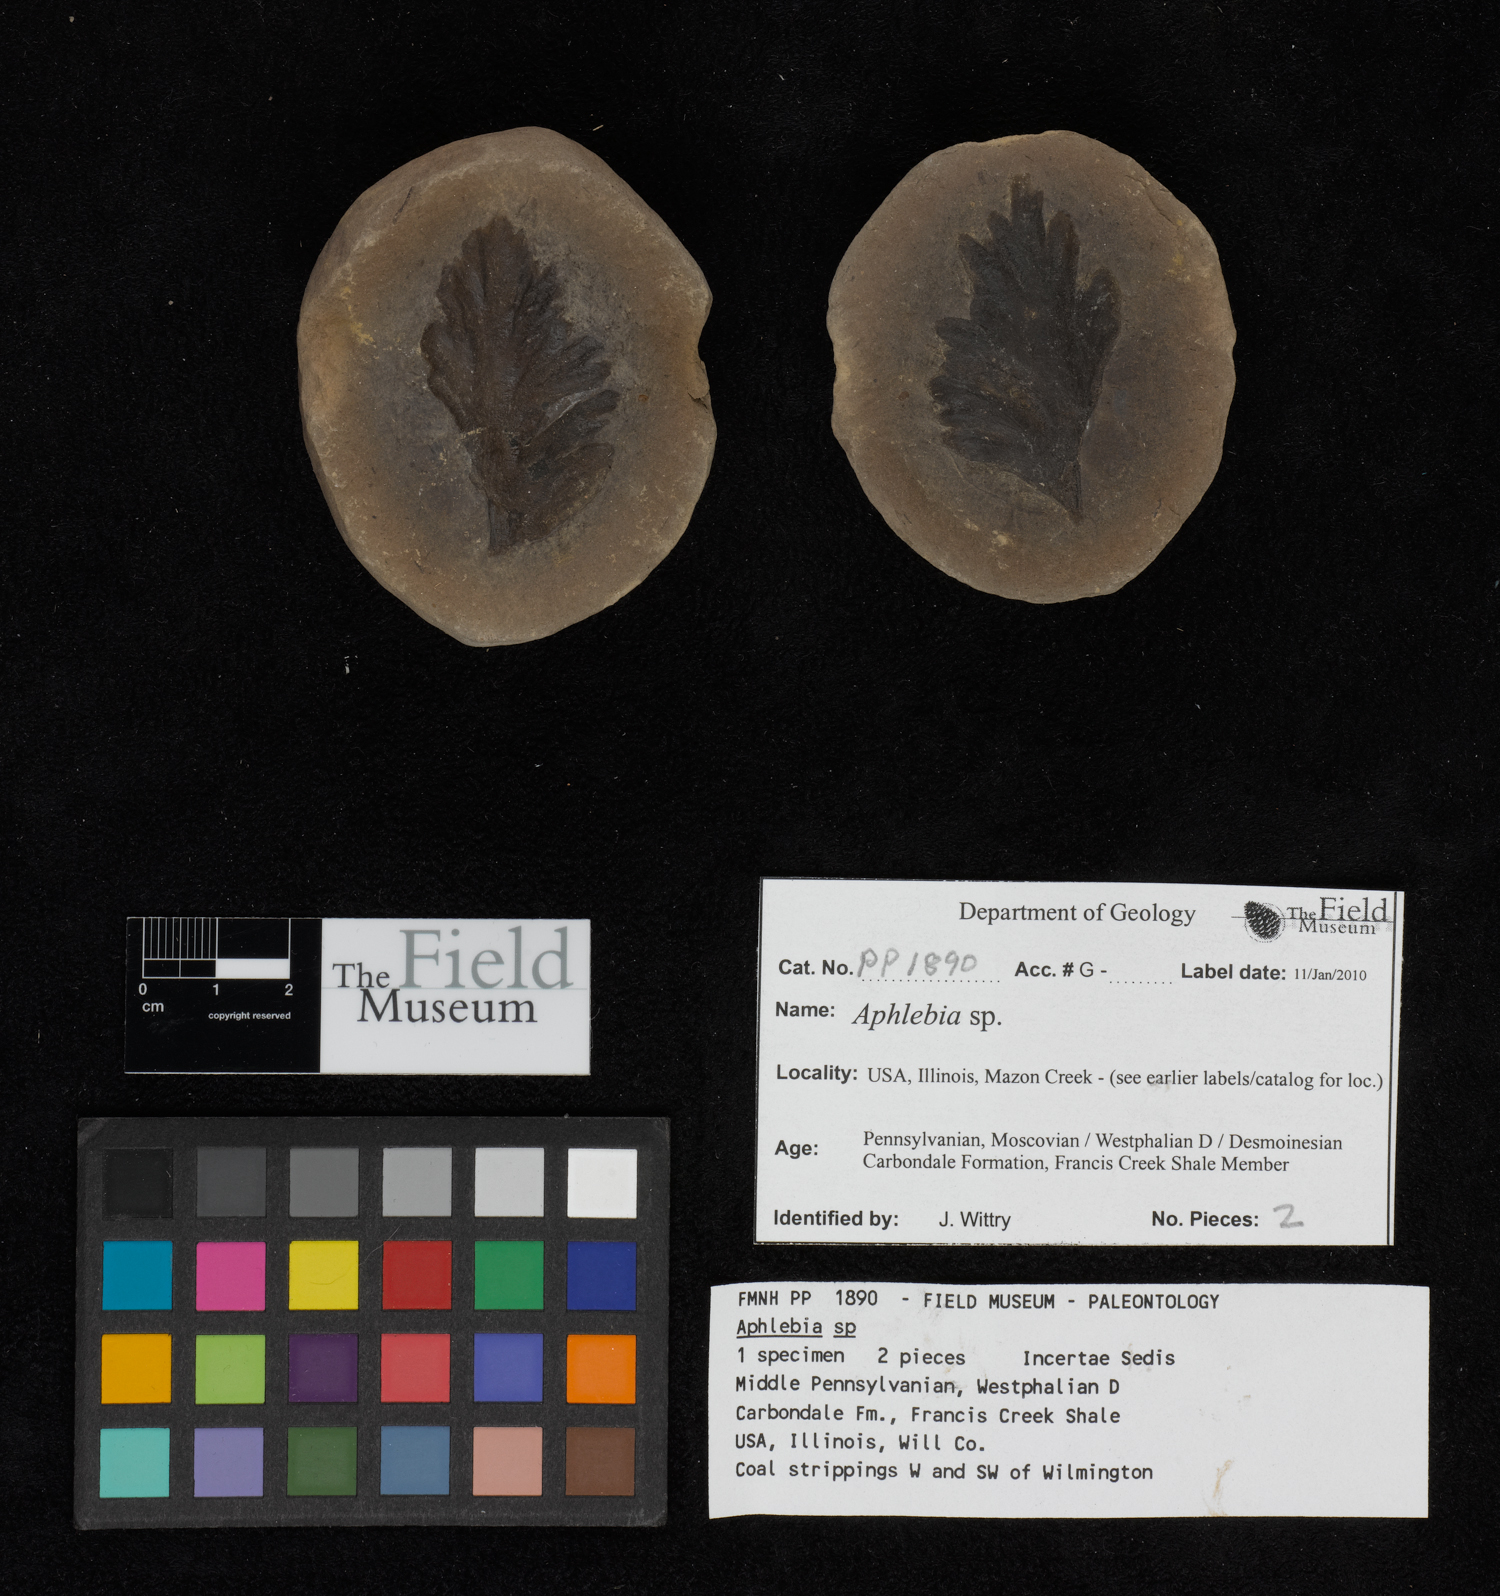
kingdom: Plantae
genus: Rhacophyllum
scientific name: Rhacophyllum
